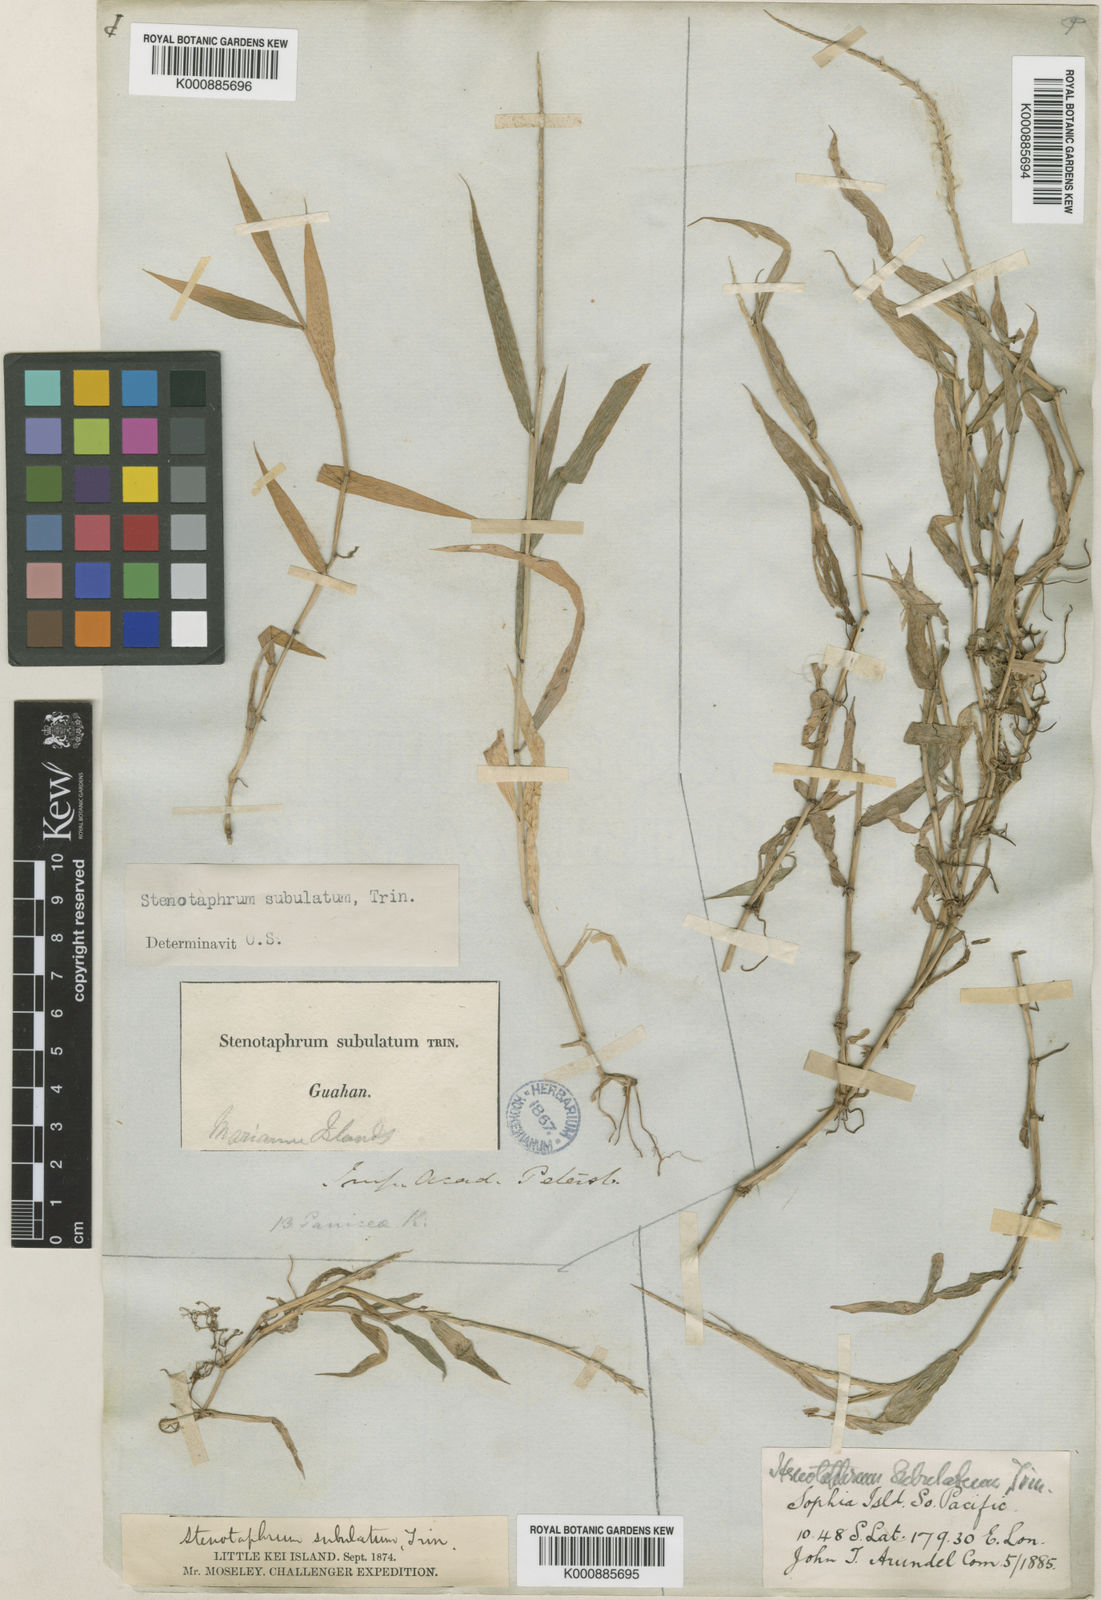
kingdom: Plantae
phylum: Tracheophyta
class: Liliopsida
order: Poales
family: Poaceae
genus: Stenotaphrum
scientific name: Stenotaphrum micranthum
